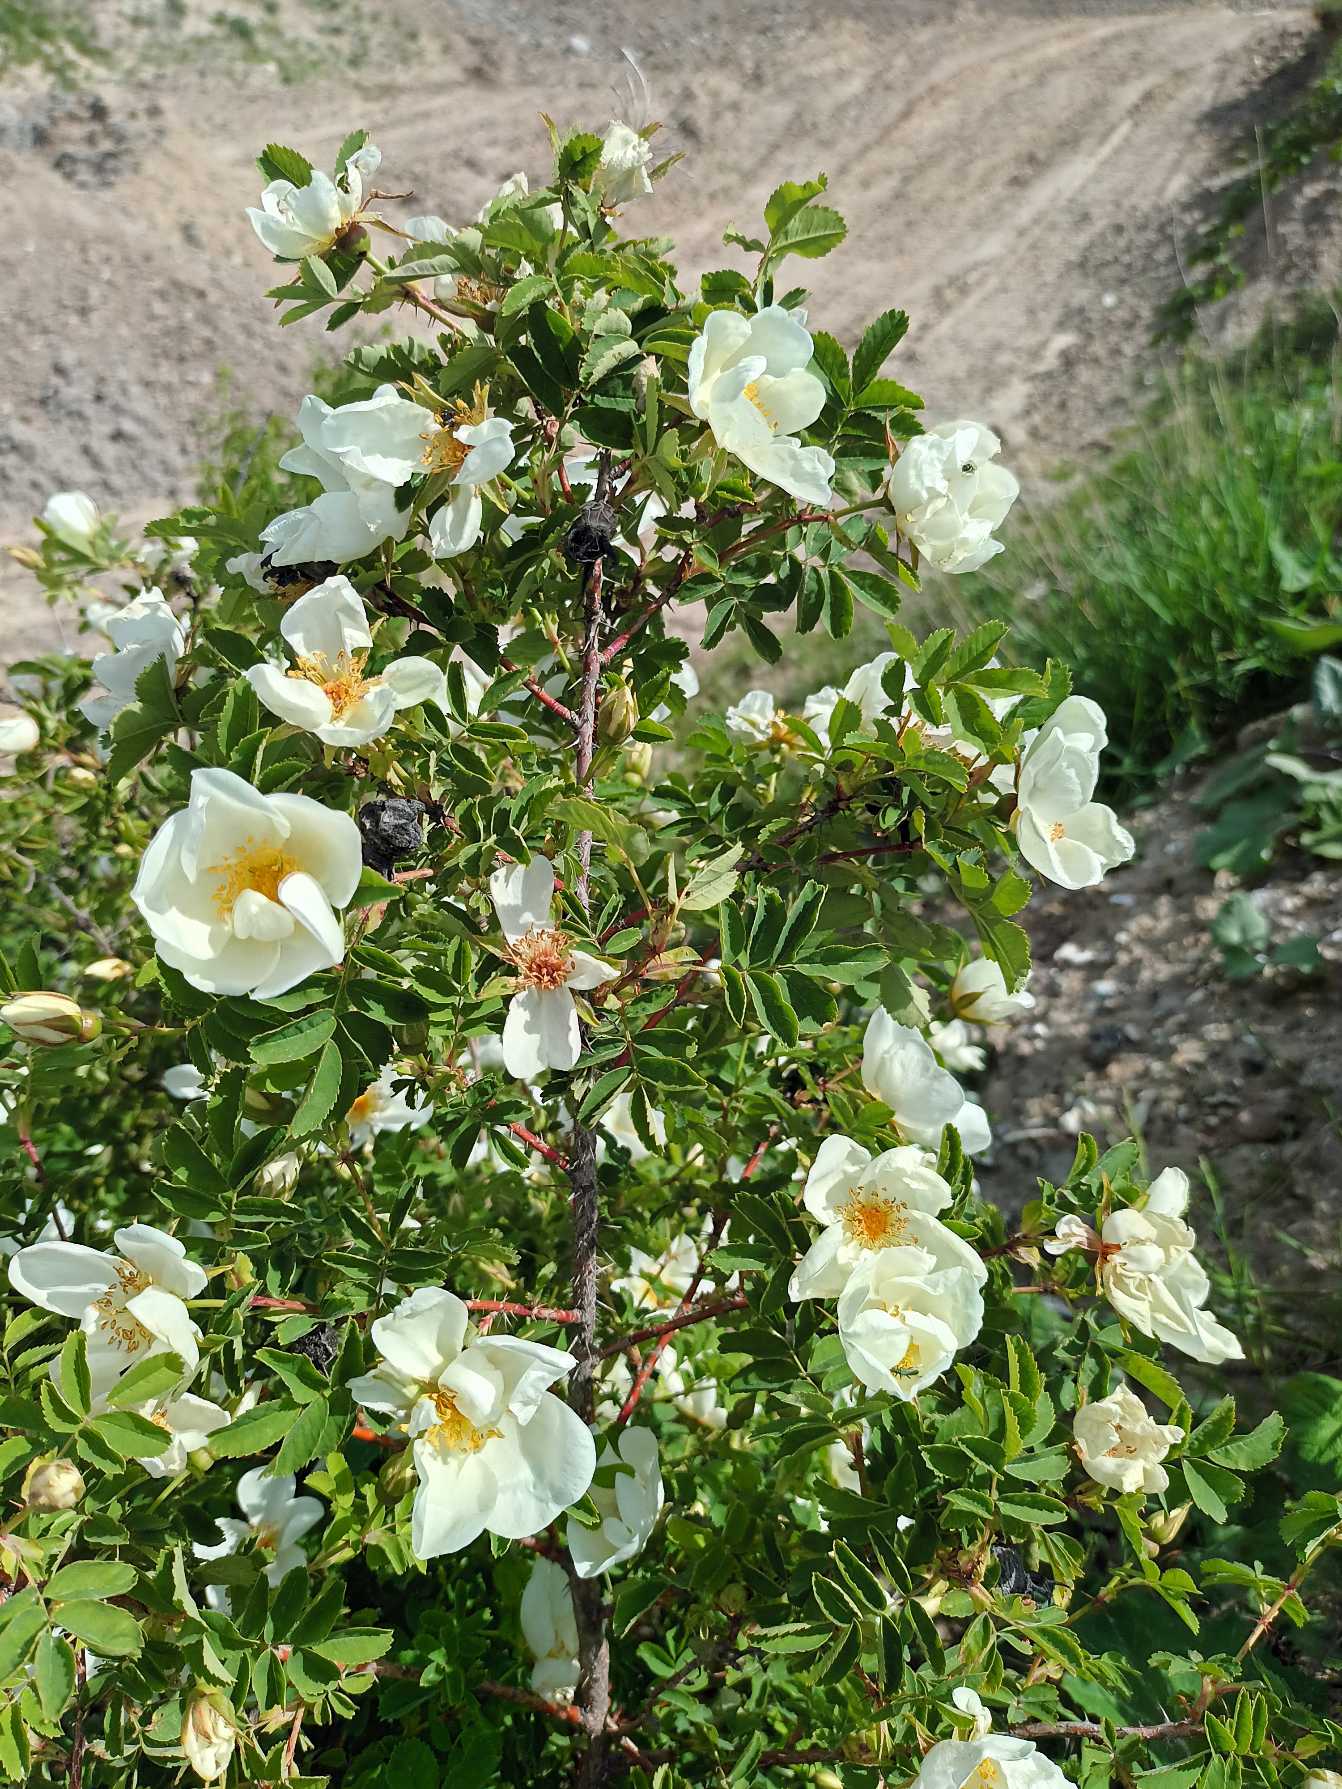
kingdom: Plantae
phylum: Tracheophyta
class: Magnoliopsida
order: Rosales
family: Rosaceae
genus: Rosa
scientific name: Rosa spinosissima
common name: Klit-rose
